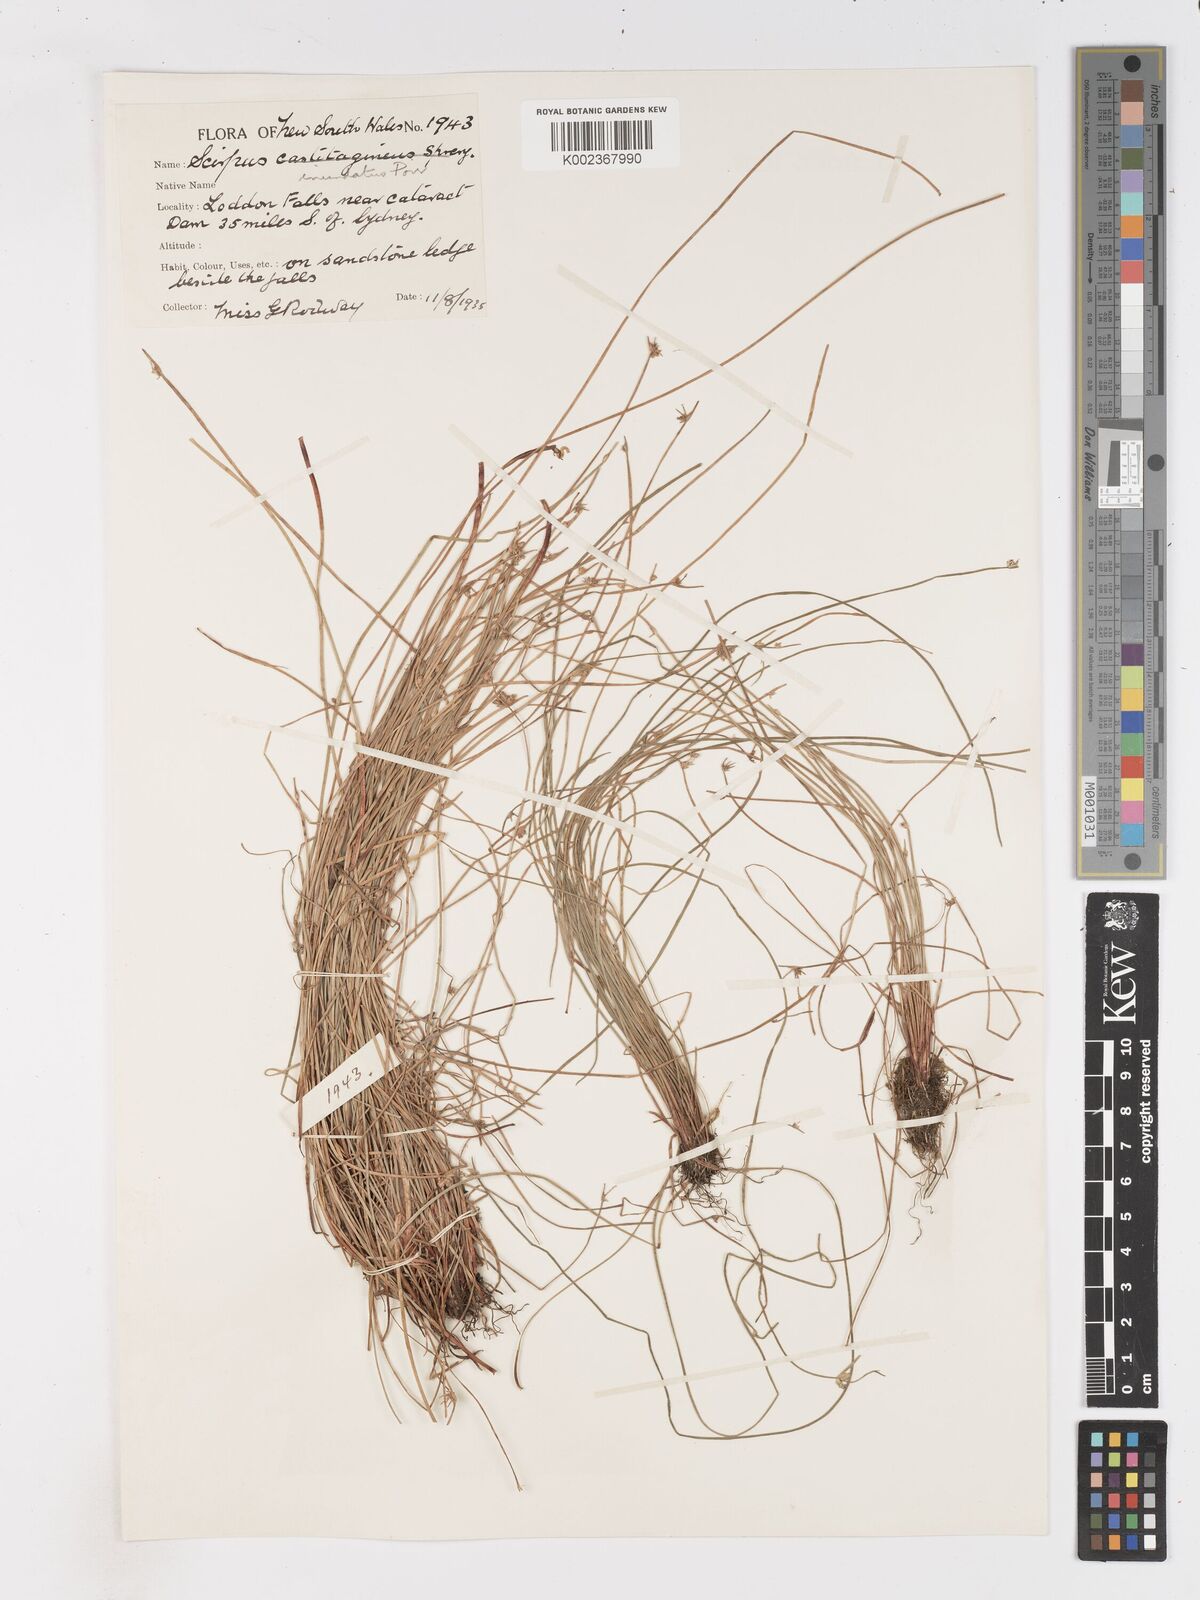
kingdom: Plantae
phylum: Tracheophyta
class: Liliopsida
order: Poales
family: Cyperaceae
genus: Isolepis
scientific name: Isolepis inundata
